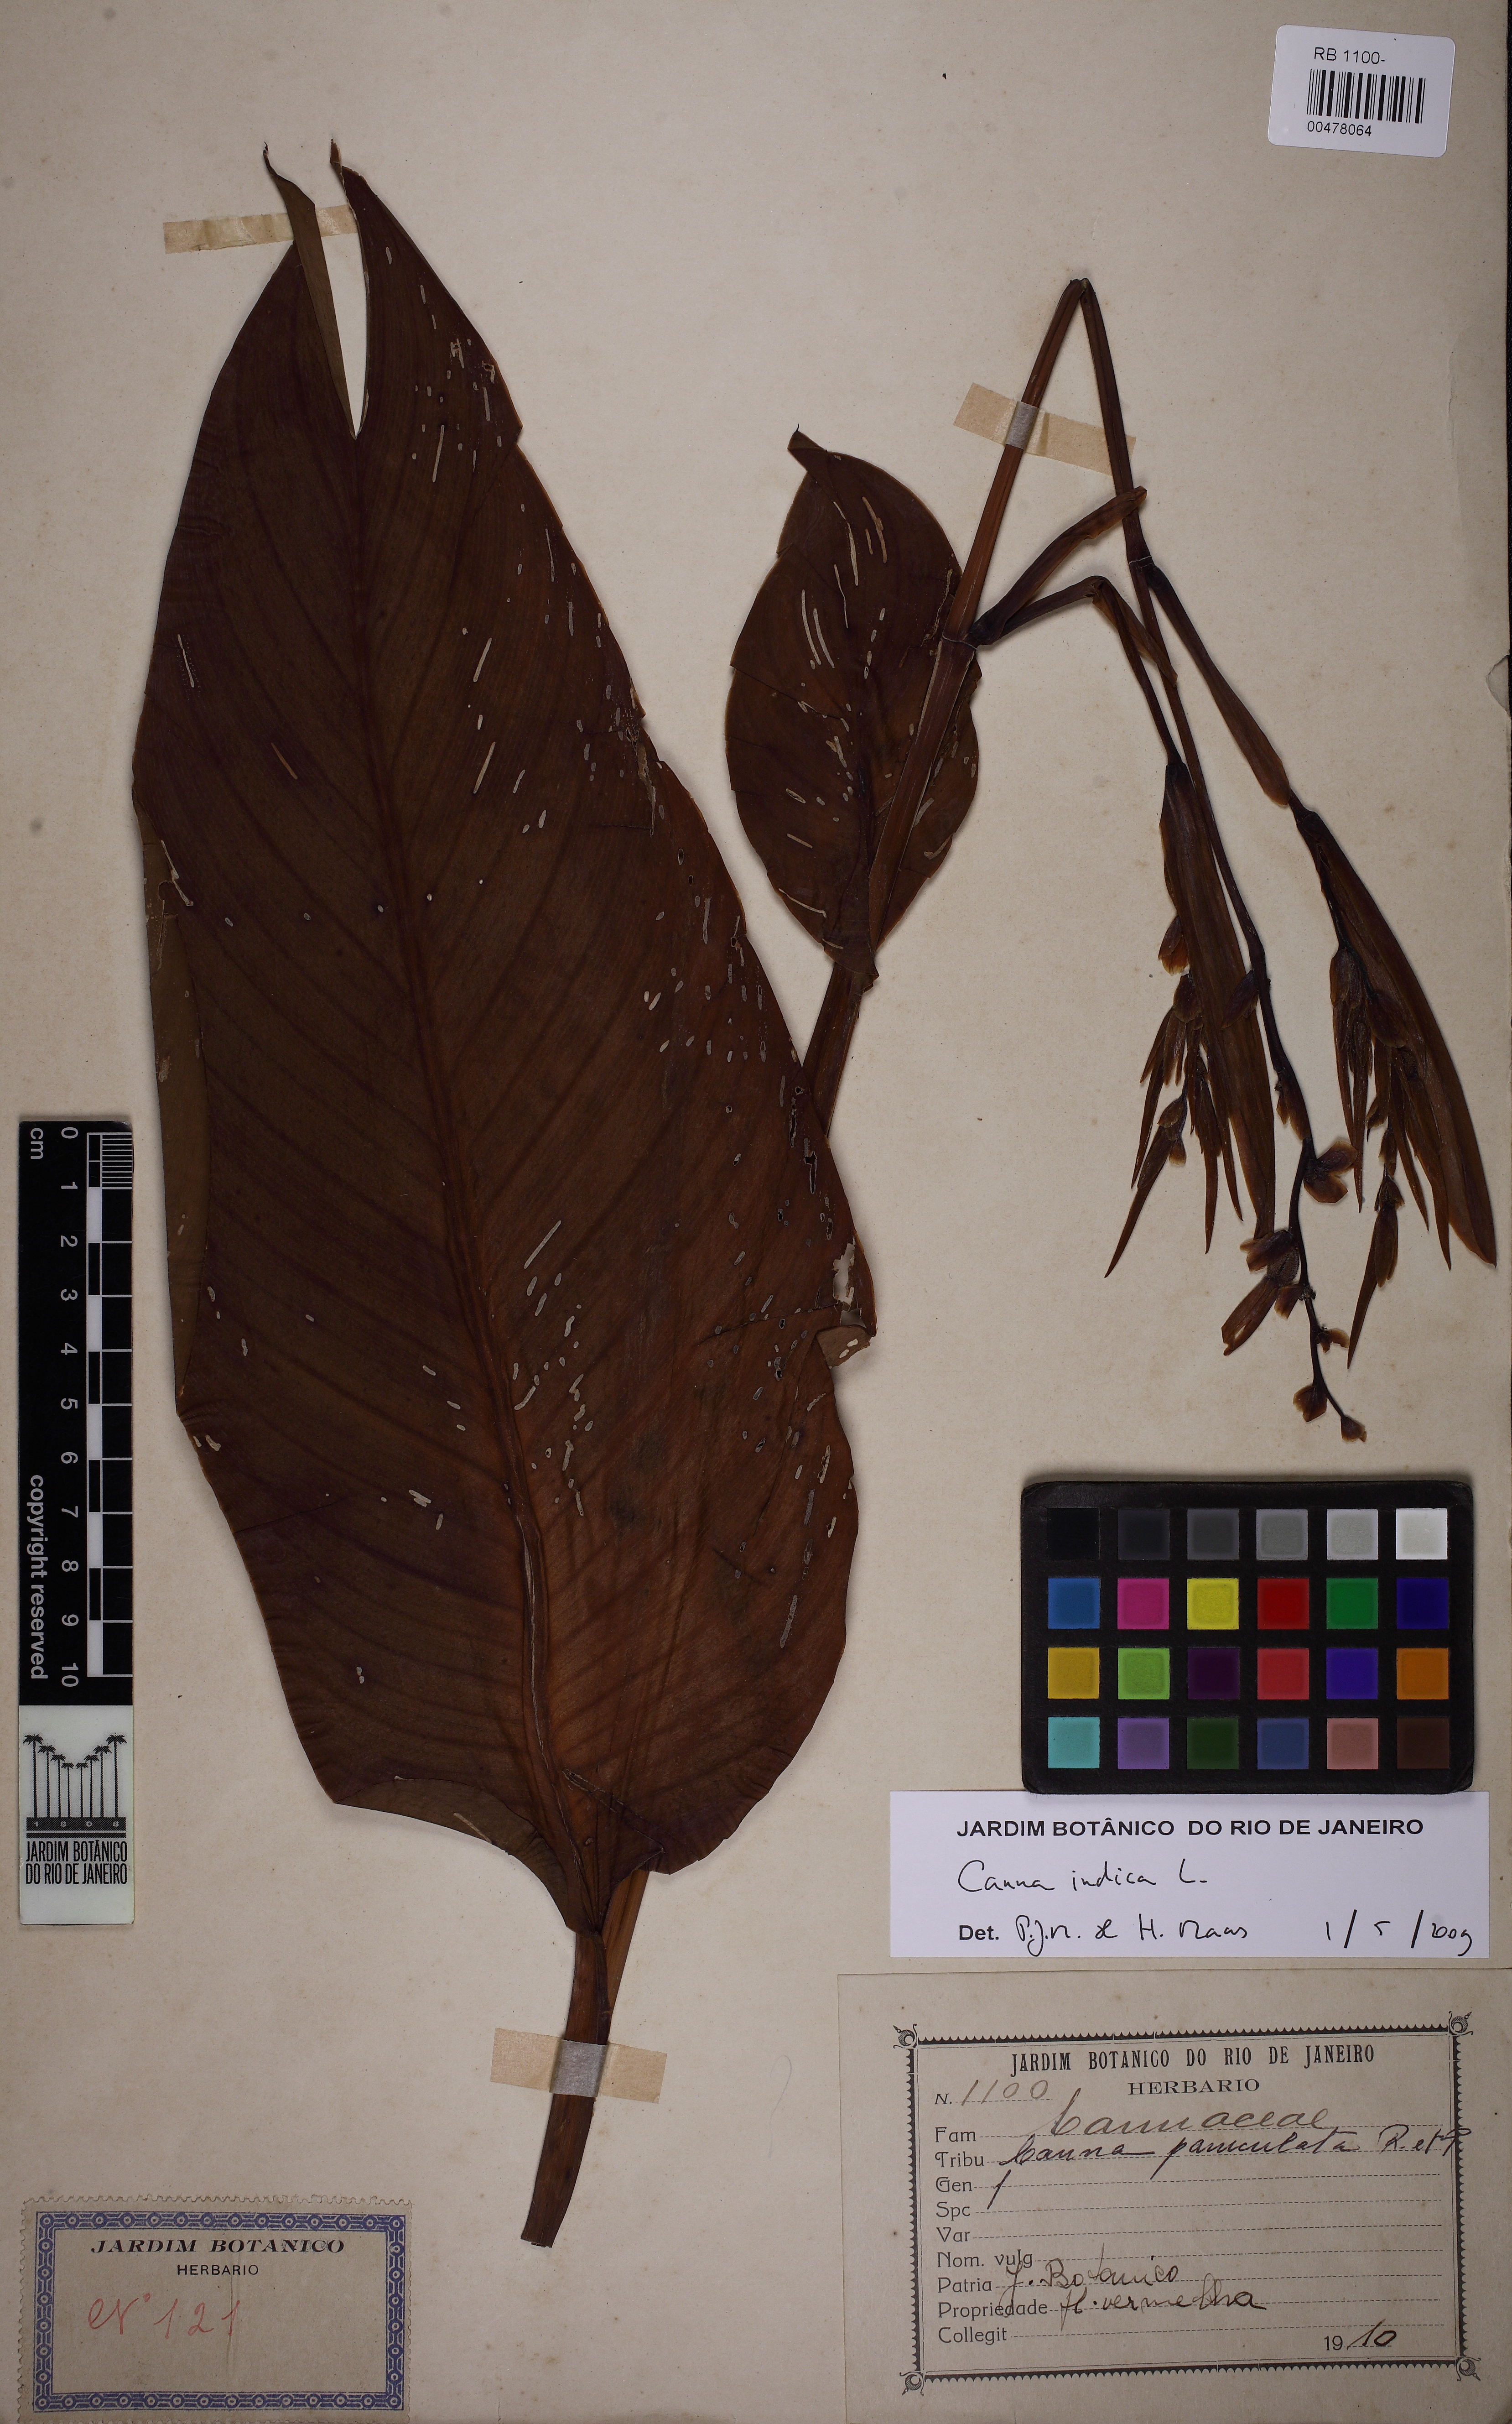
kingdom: Plantae
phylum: Tracheophyta
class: Liliopsida
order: Zingiberales
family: Cannaceae
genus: Canna
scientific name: Canna indica
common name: Indian shot
